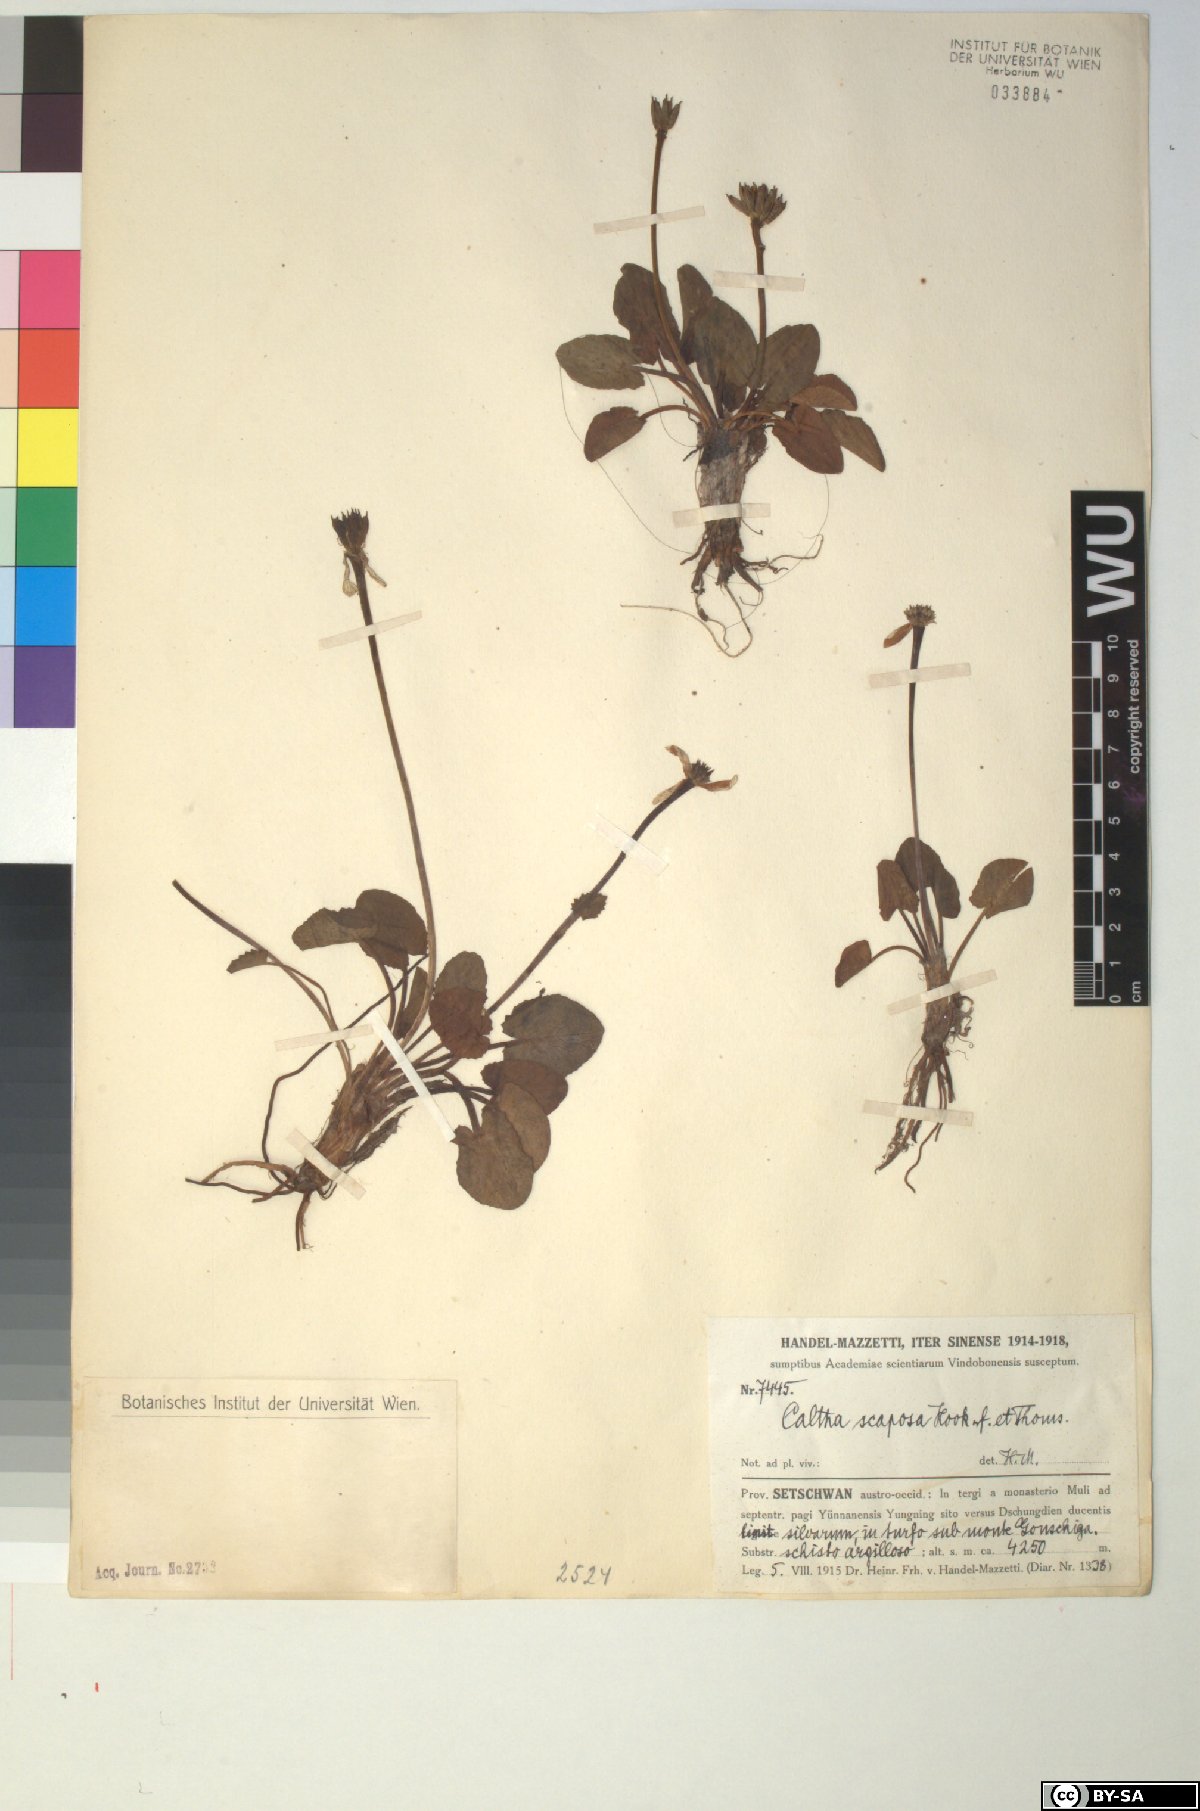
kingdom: Plantae
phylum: Tracheophyta
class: Magnoliopsida
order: Ranunculales
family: Ranunculaceae
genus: Caltha
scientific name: Caltha scaposa
